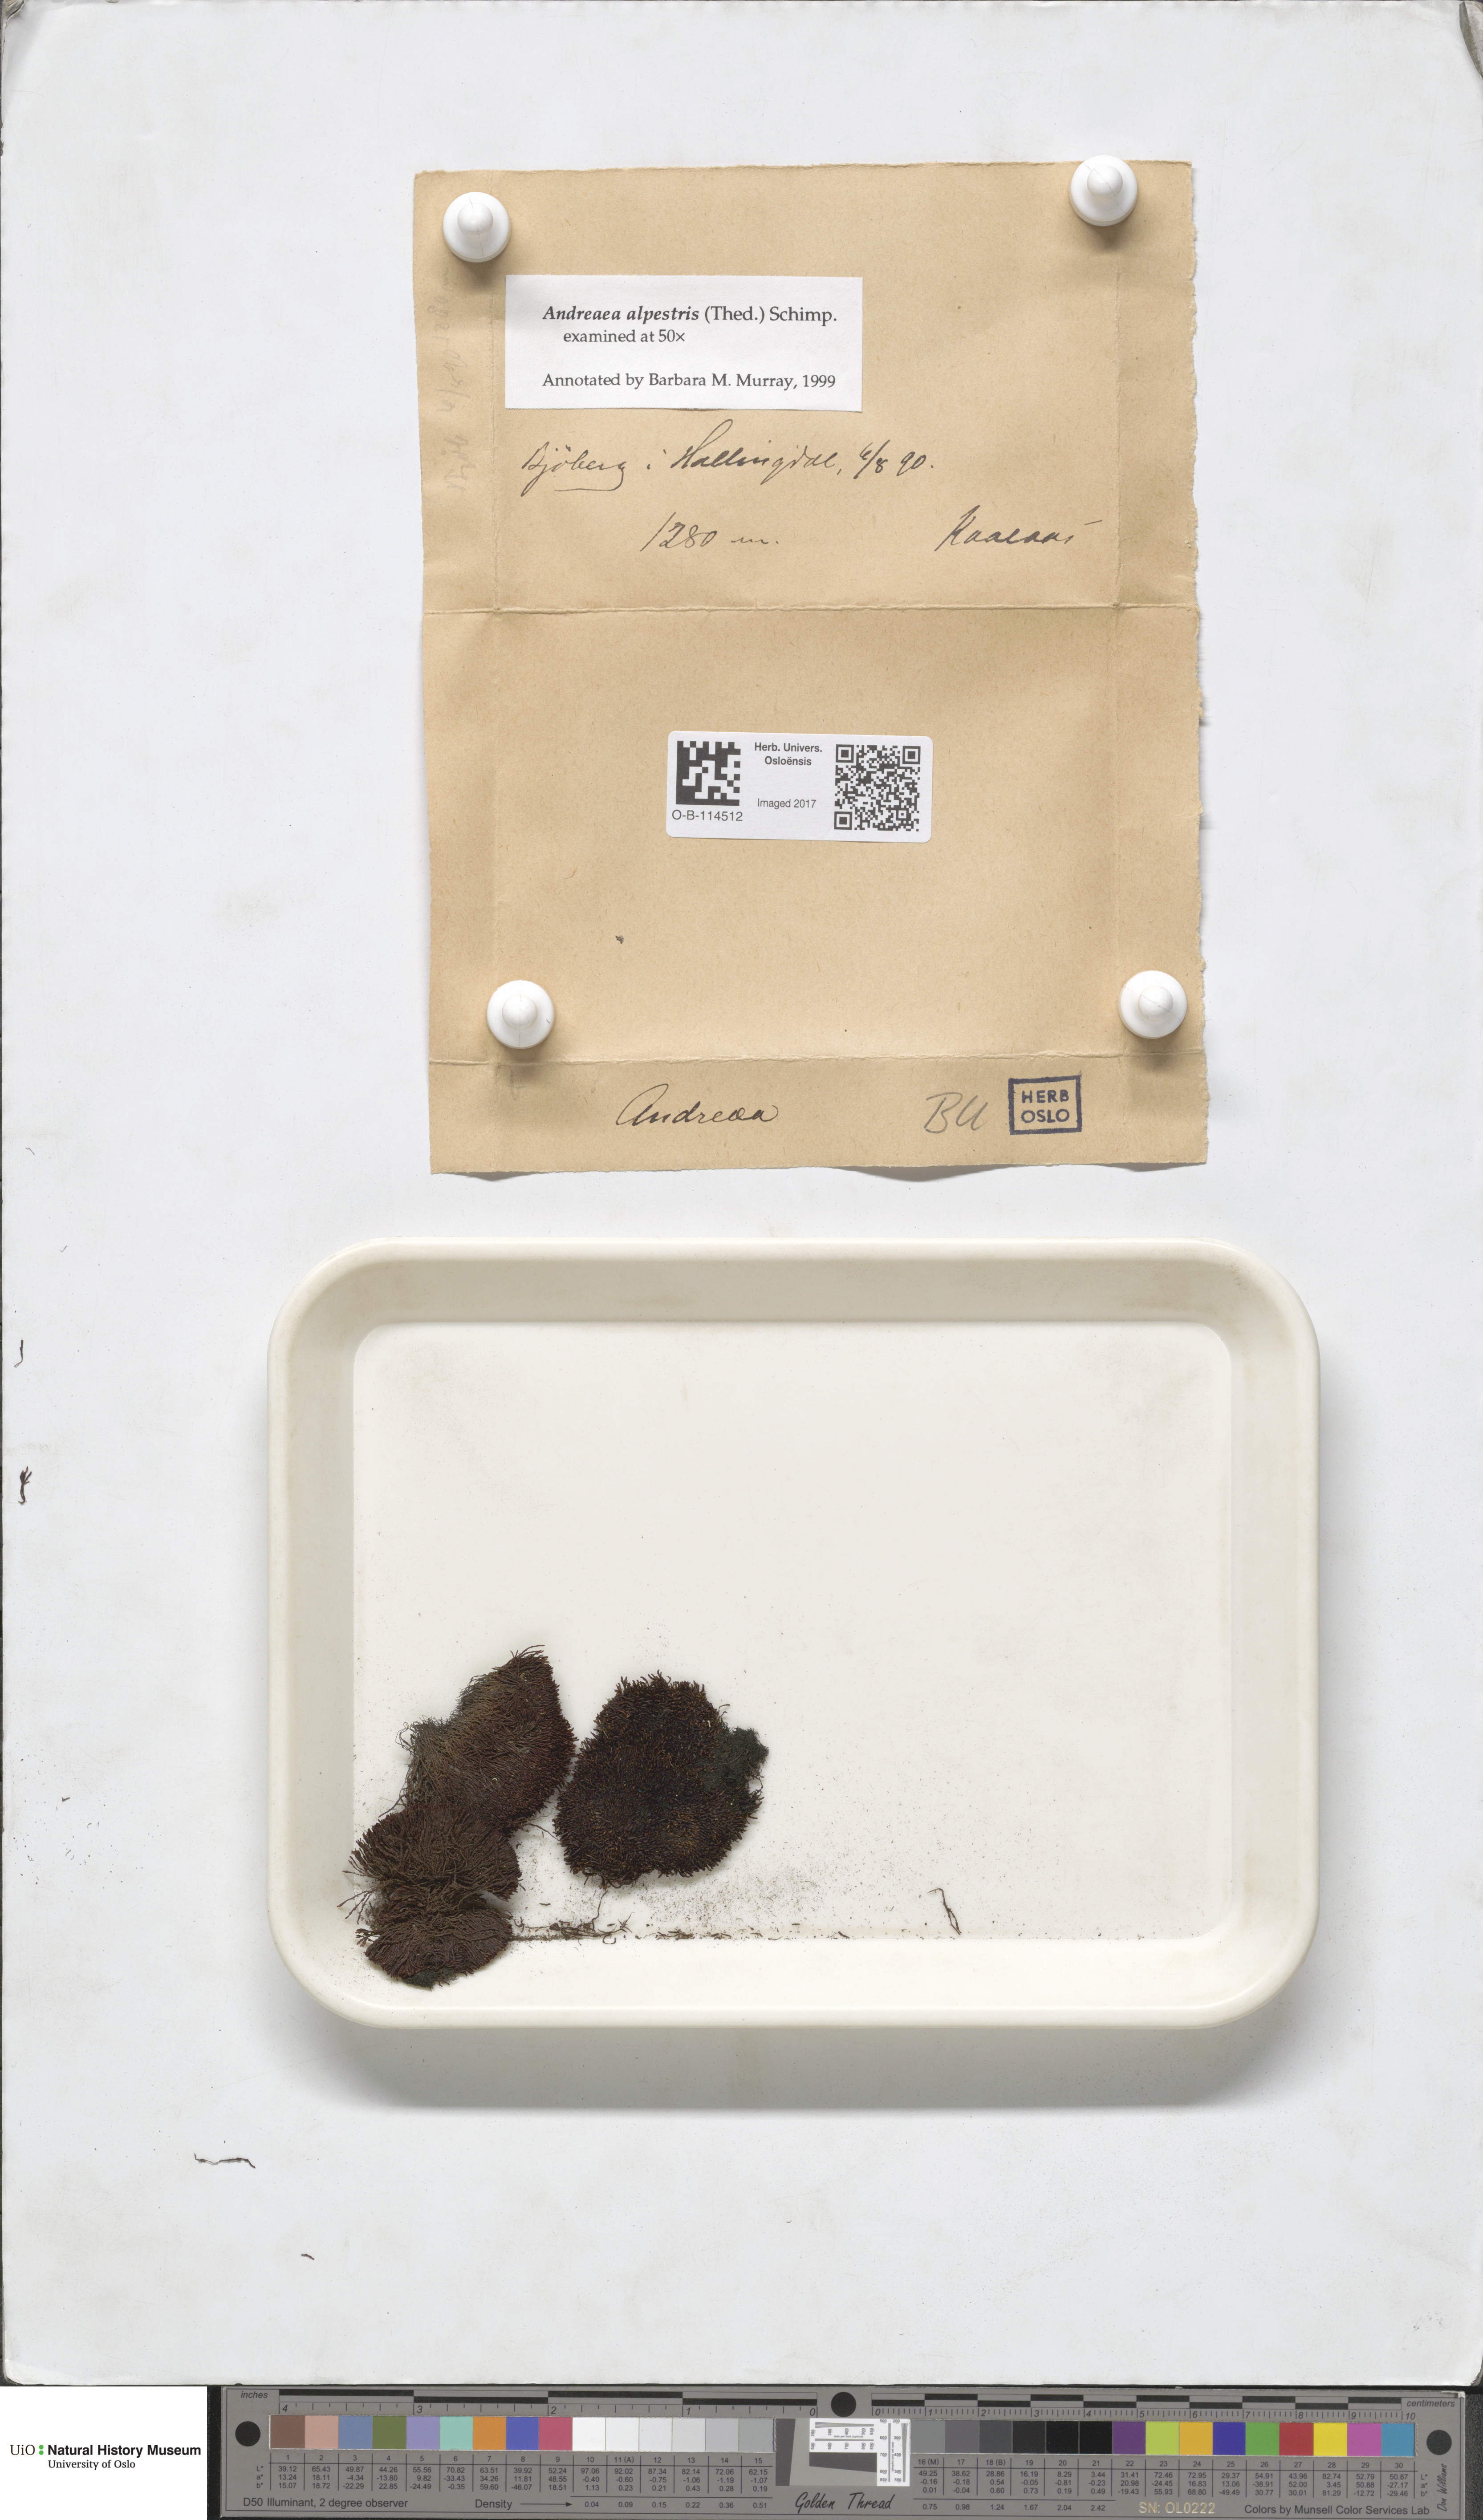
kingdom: Plantae
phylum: Bryophyta
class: Andreaeopsida
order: Andreaeales
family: Andreaeaceae
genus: Andreaea
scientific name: Andreaea alpestris
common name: Slender rock-moss
